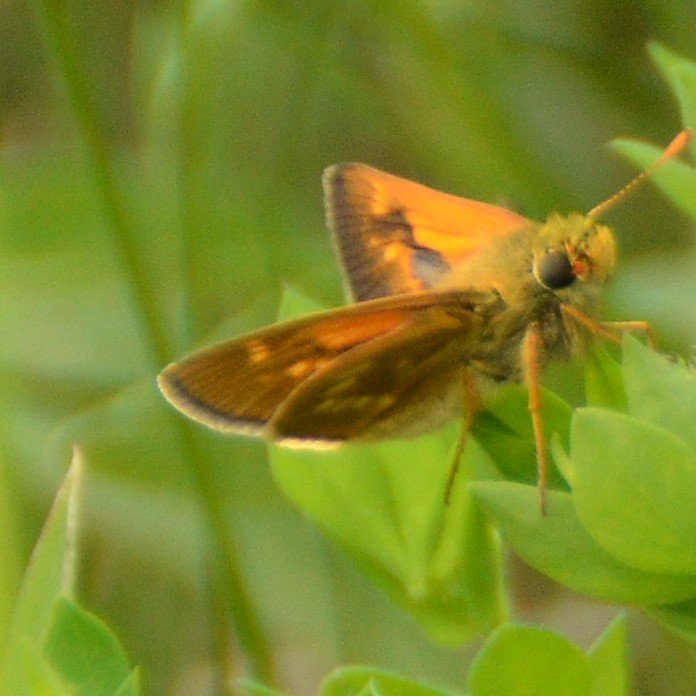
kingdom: Animalia
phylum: Arthropoda
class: Insecta
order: Lepidoptera
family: Hesperiidae
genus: Polites
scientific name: Polites
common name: Long Dash Skipper
